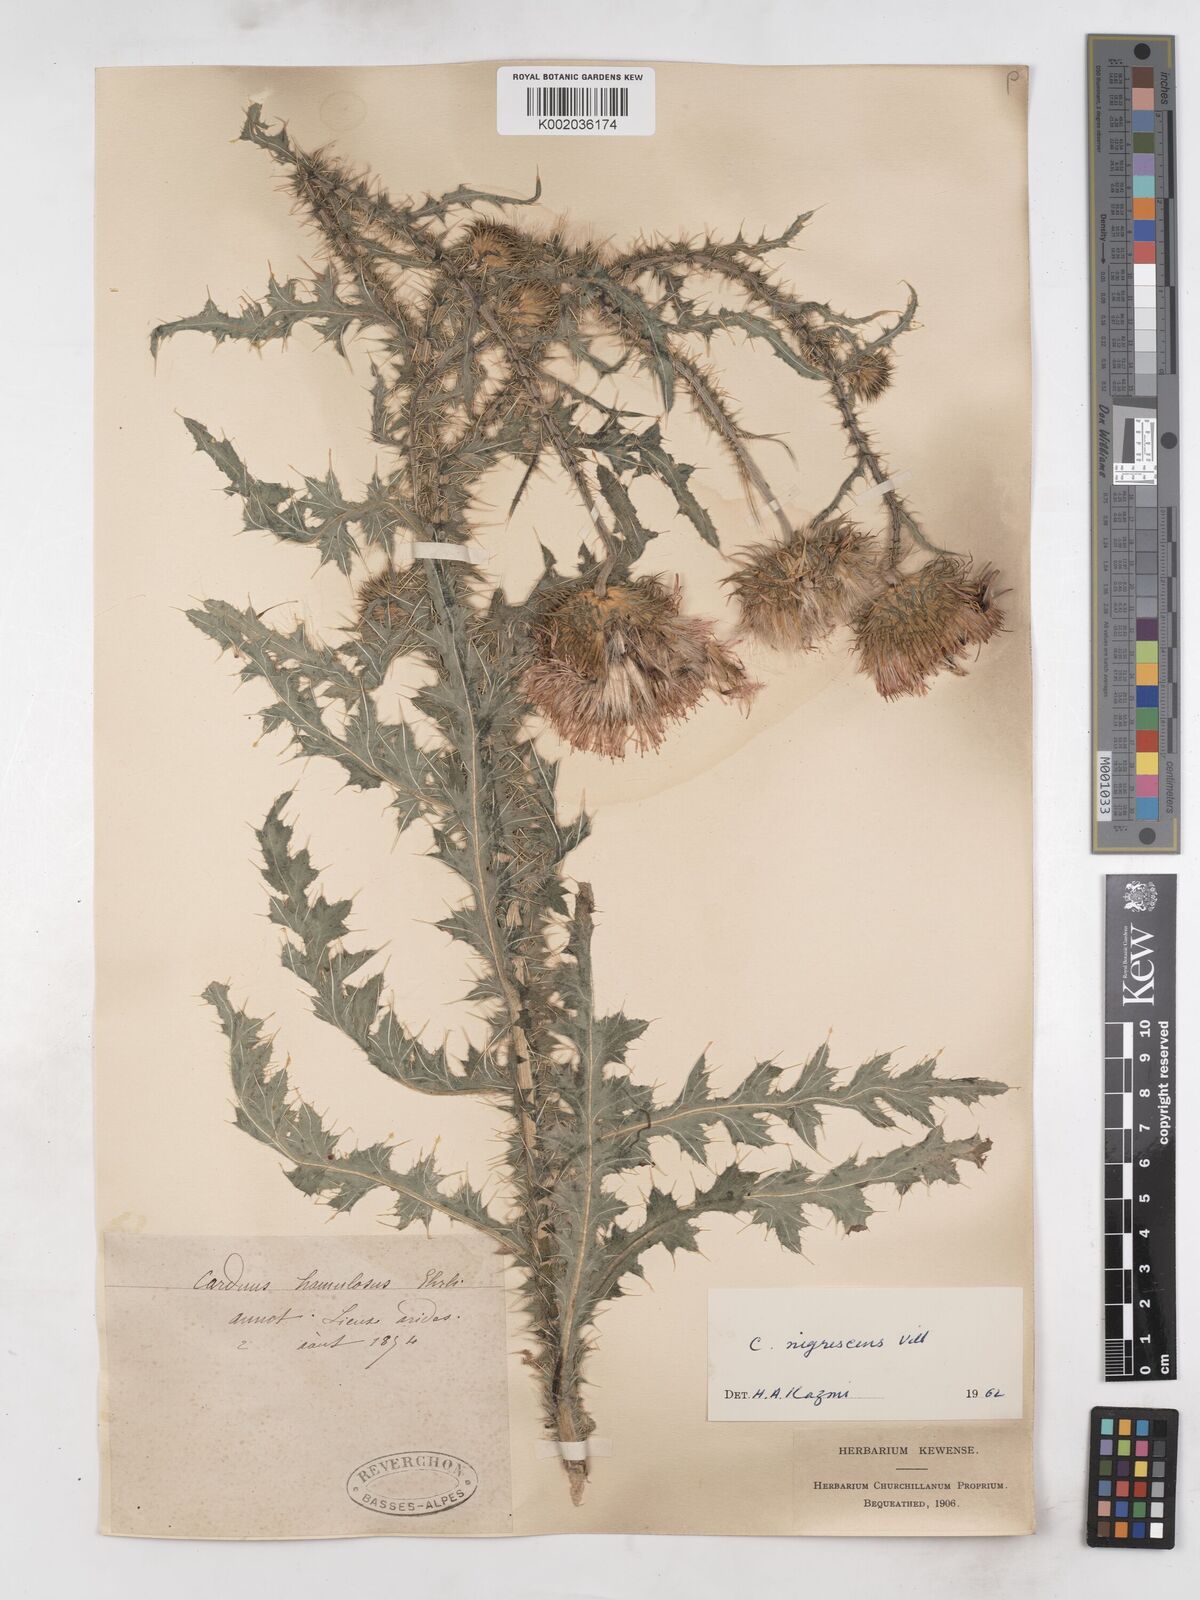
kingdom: Plantae
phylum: Tracheophyta
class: Magnoliopsida
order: Asterales
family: Asteraceae
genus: Carduus
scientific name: Carduus nigrescens
